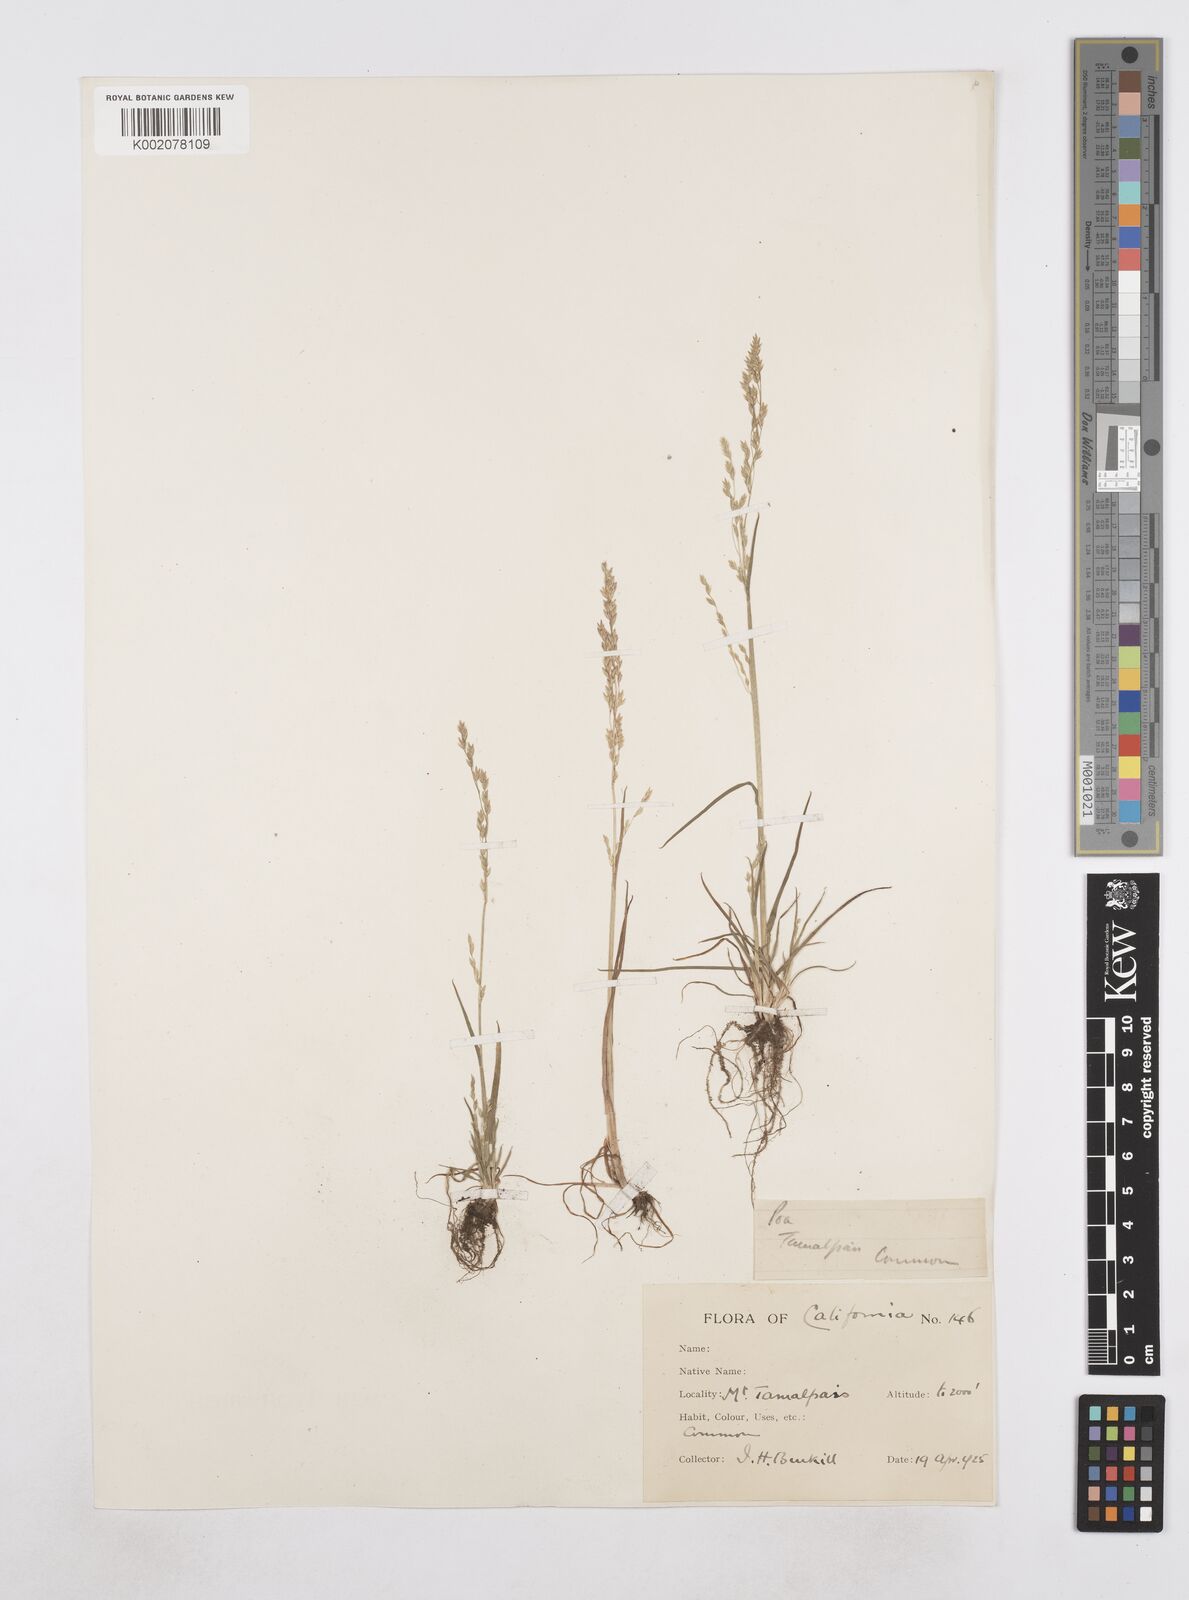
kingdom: Plantae
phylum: Tracheophyta
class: Liliopsida
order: Poales
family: Poaceae
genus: Poa
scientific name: Poa
